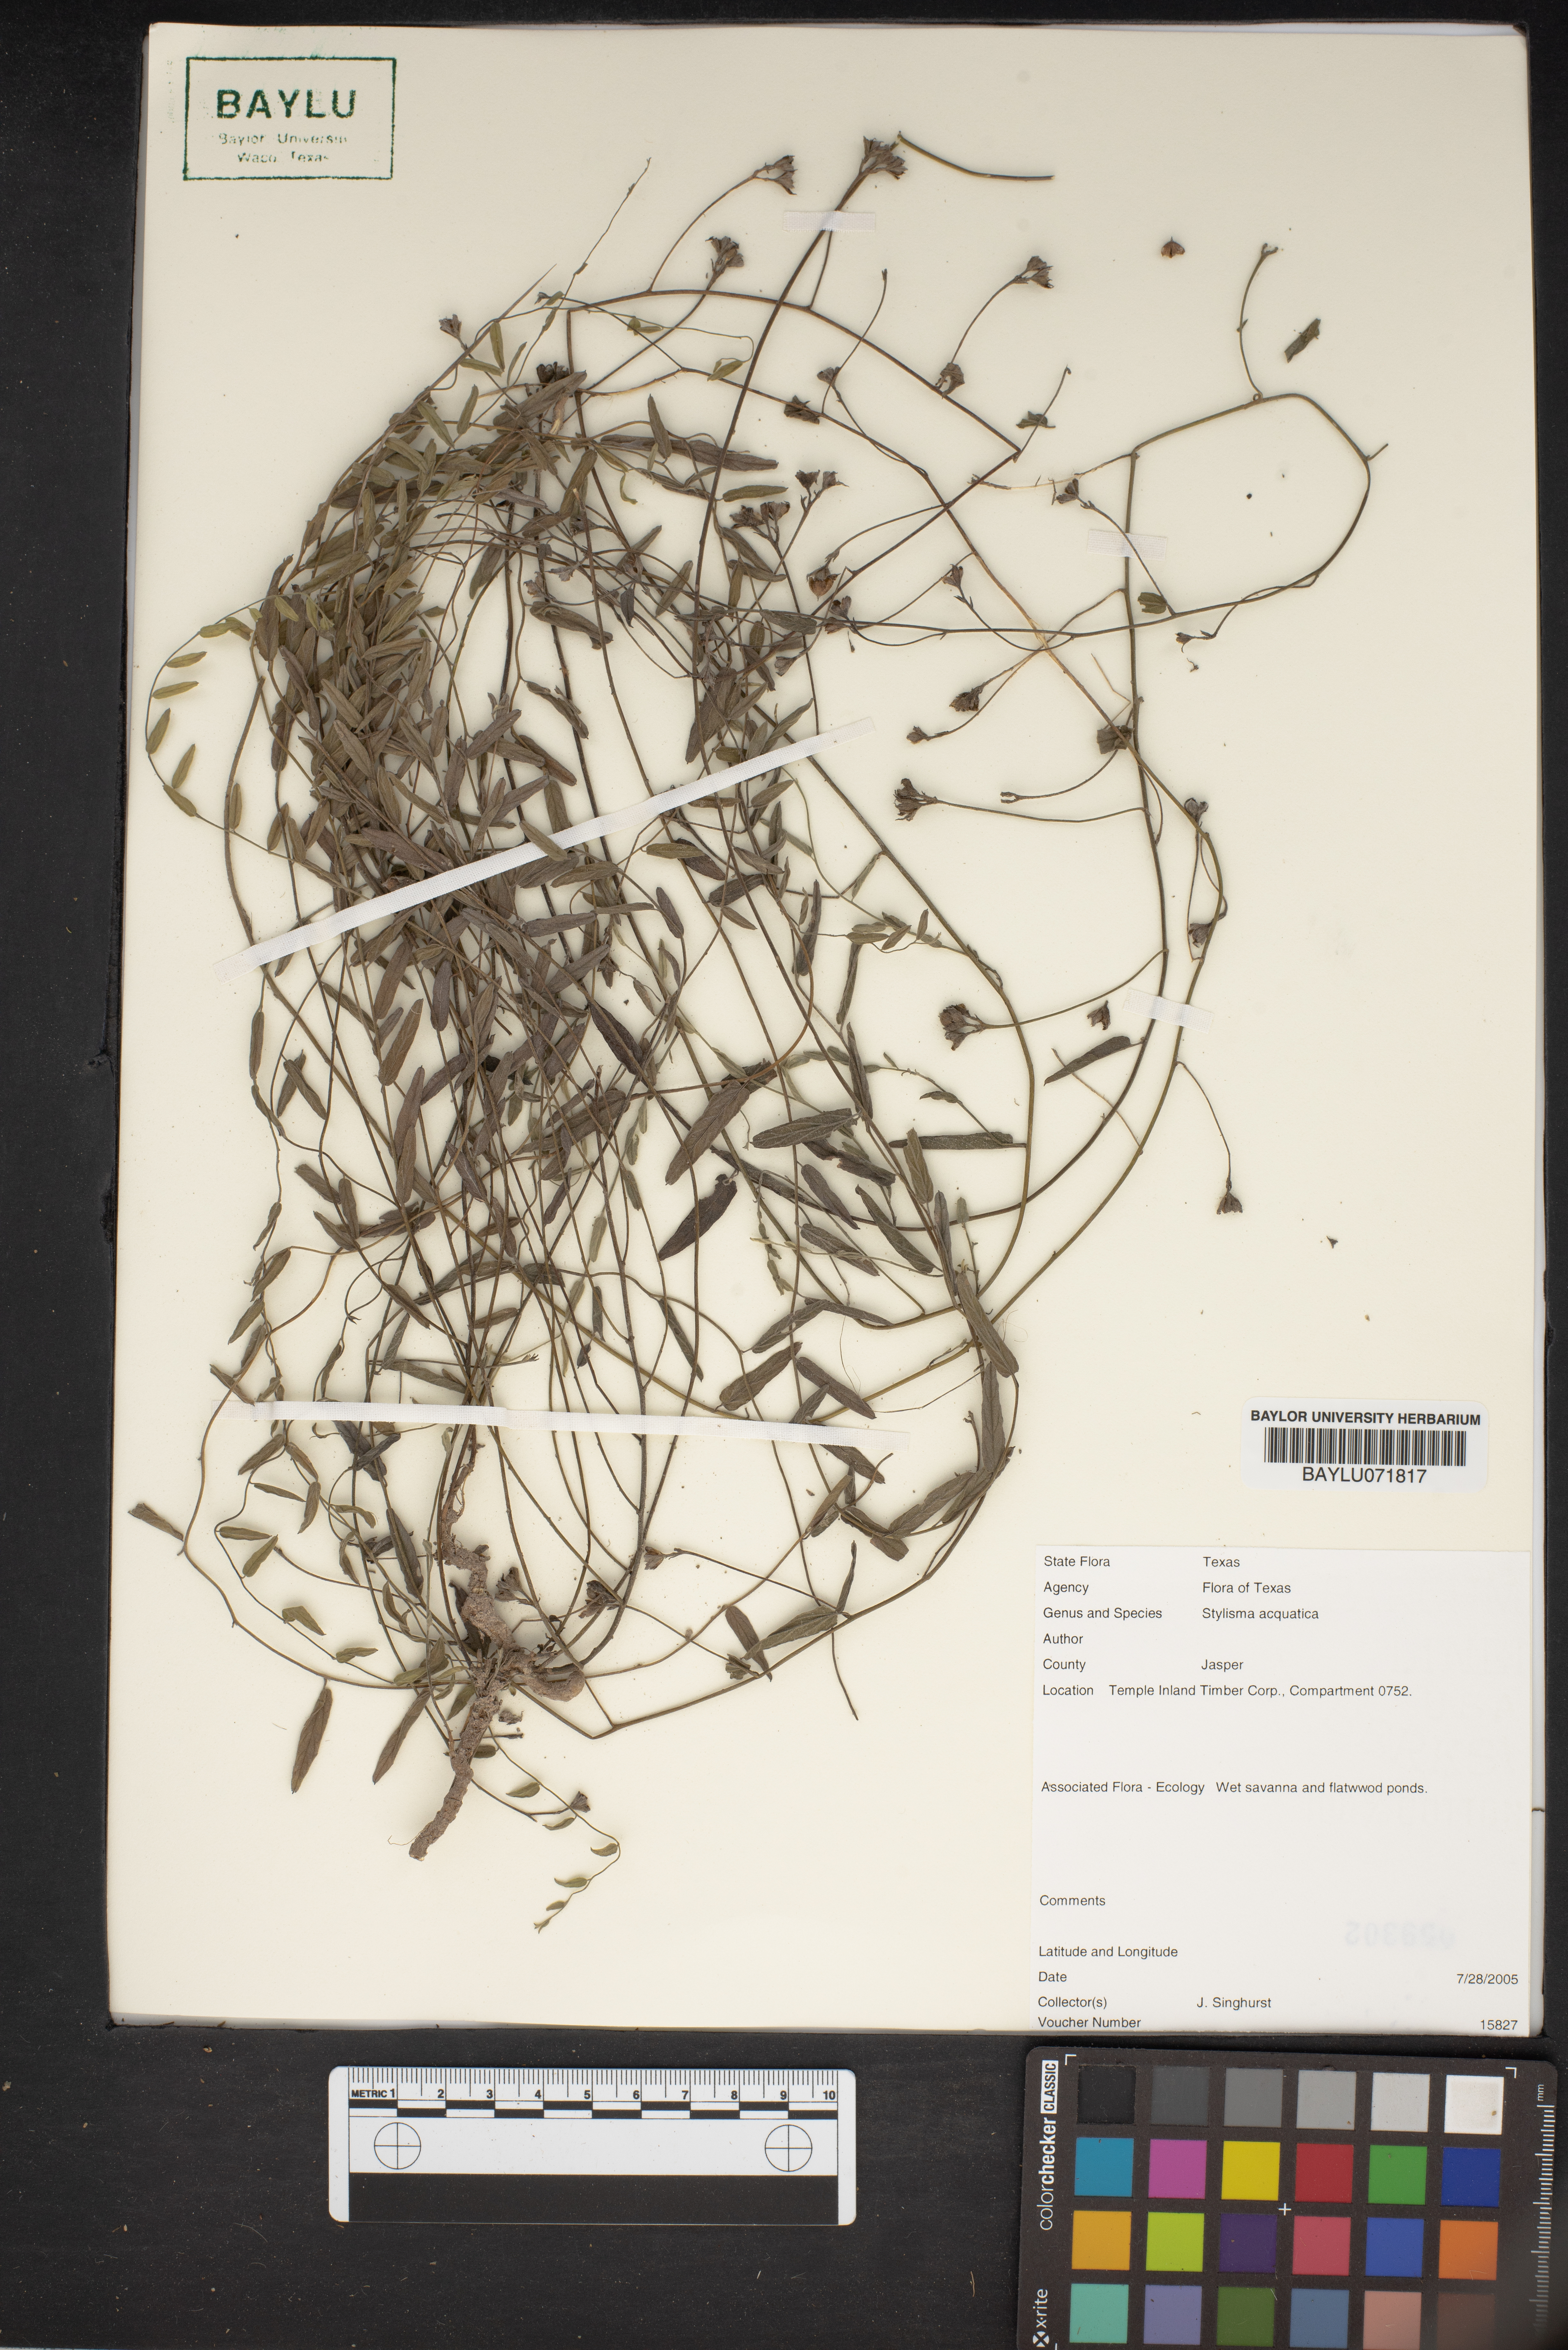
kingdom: Plantae
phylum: Tracheophyta
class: Magnoliopsida
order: Solanales
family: Convolvulaceae
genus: Stylisma
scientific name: Stylisma aquatica
